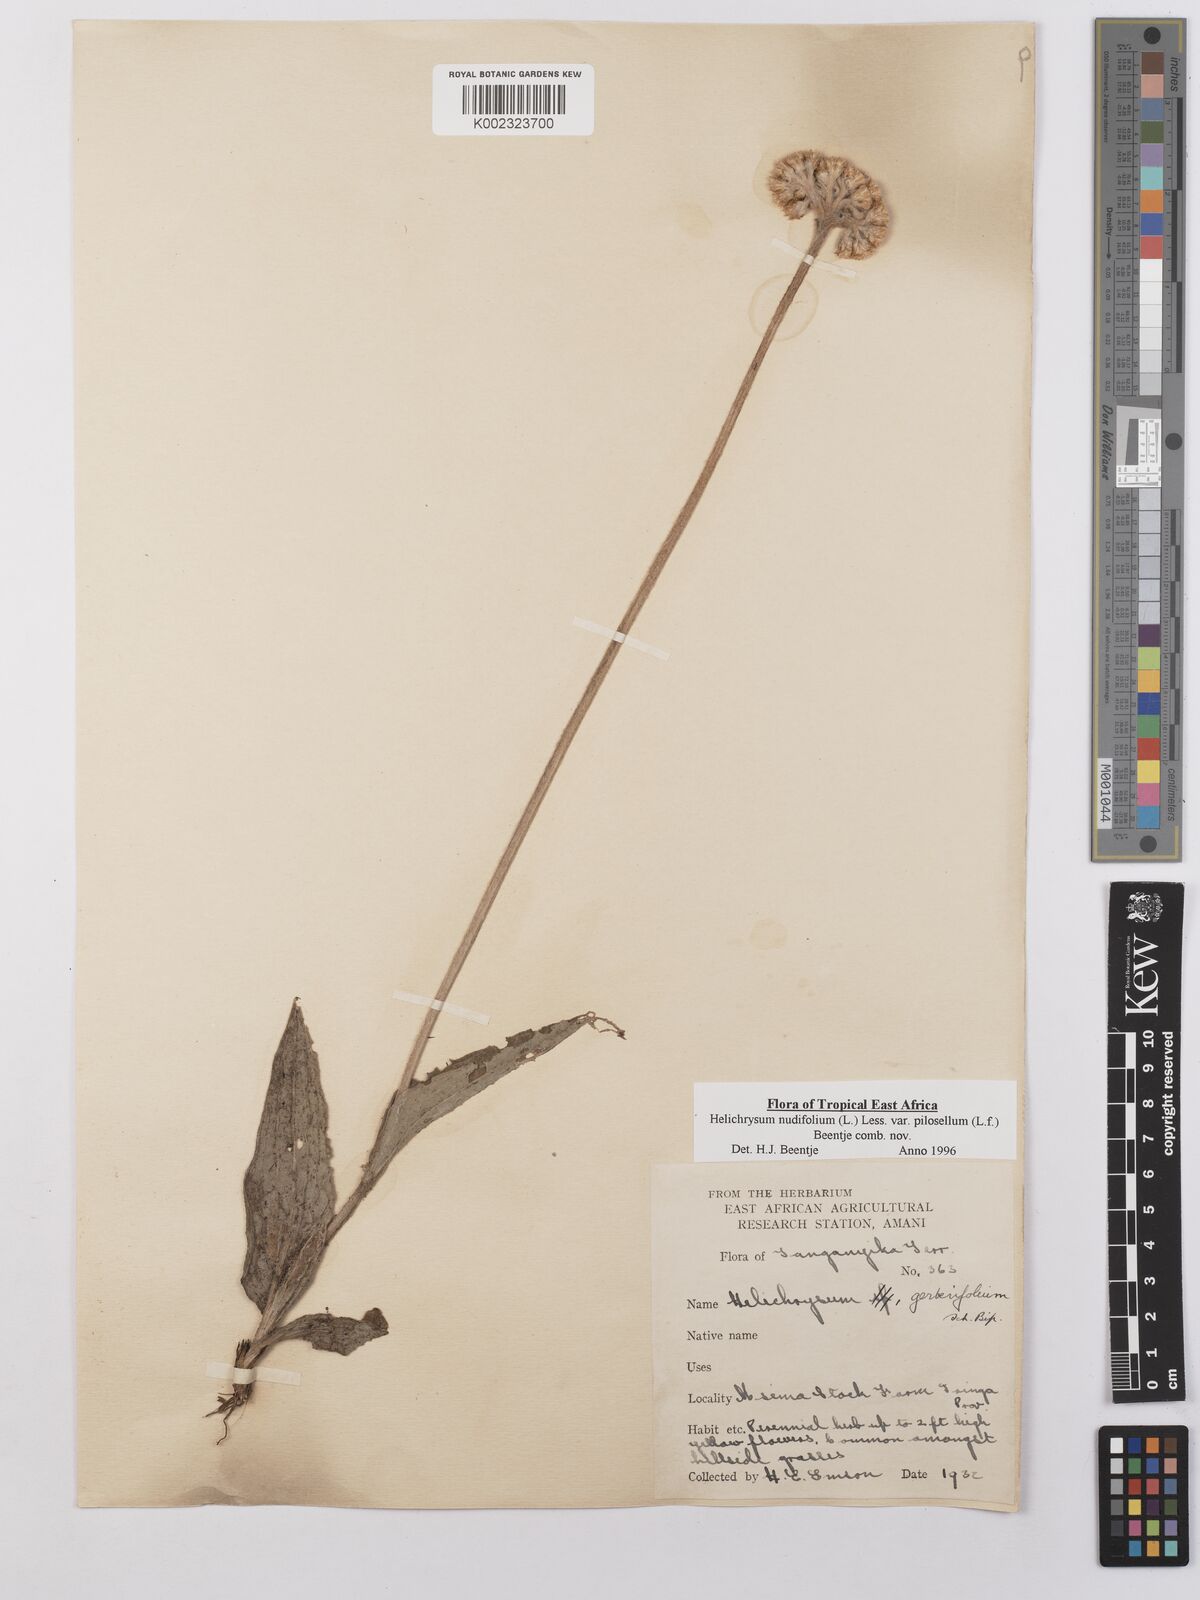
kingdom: Plantae
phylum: Tracheophyta
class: Magnoliopsida
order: Asterales
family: Asteraceae
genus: Helichrysum
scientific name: Helichrysum nudifolium
